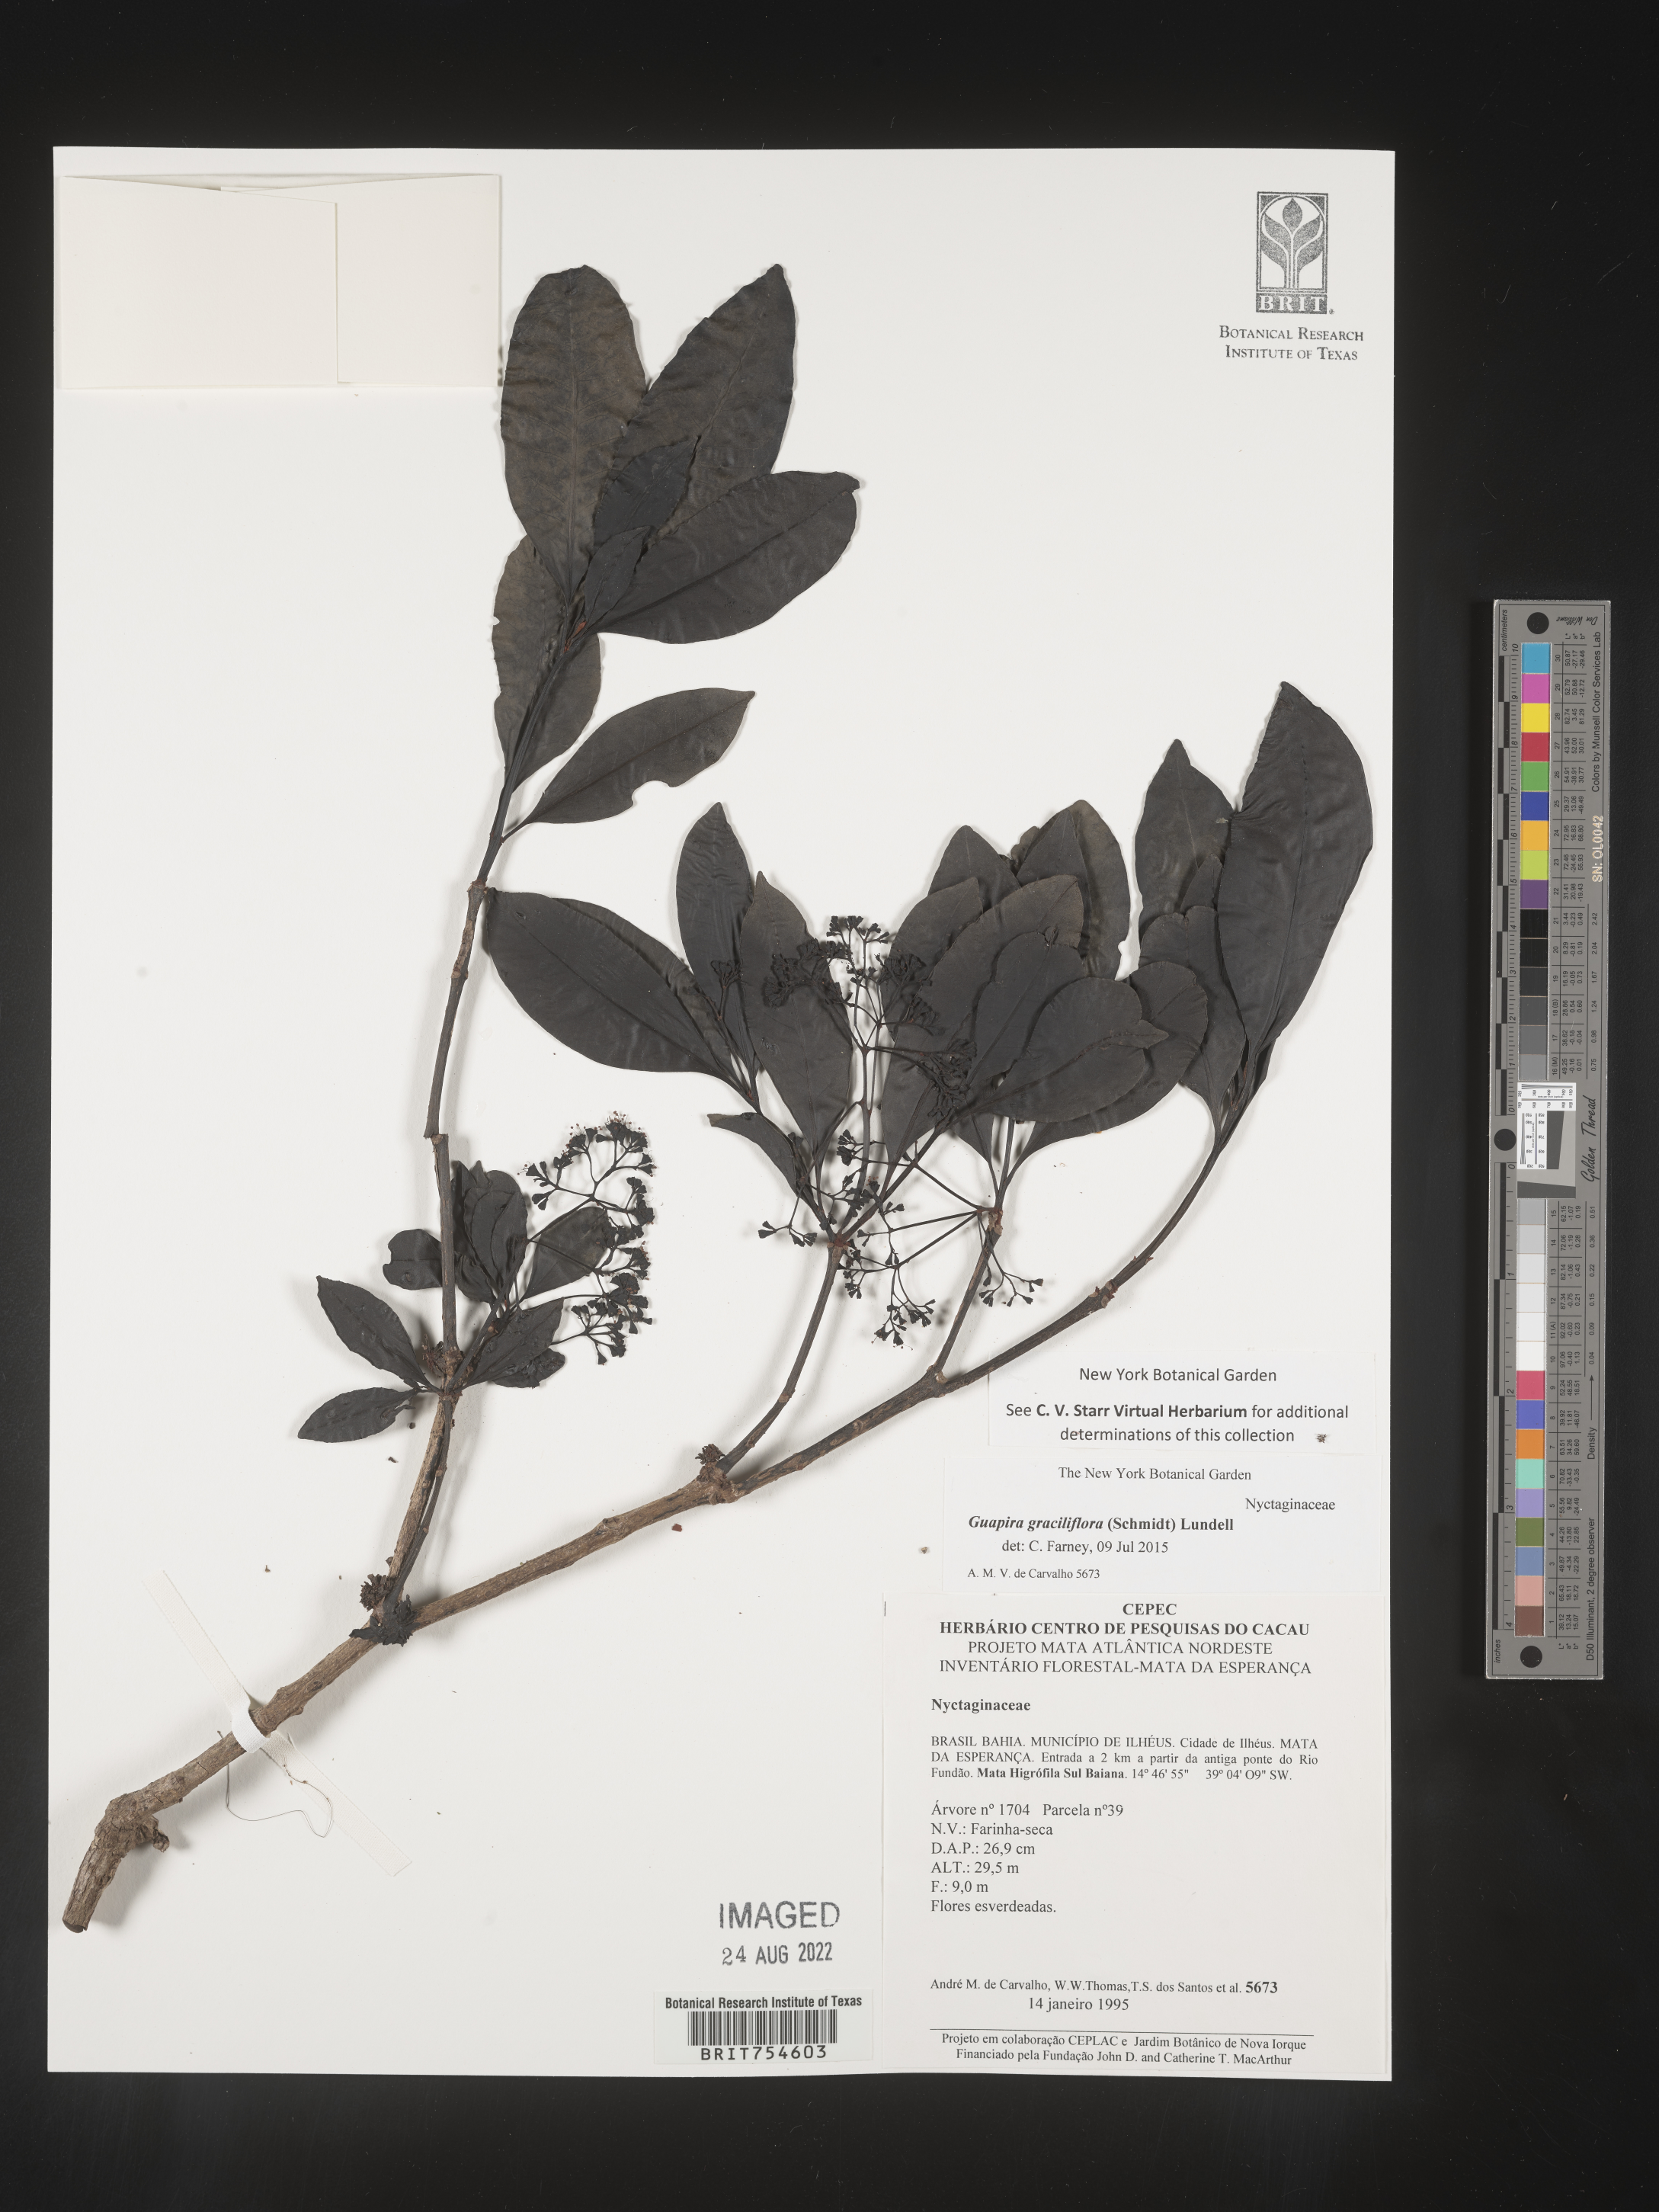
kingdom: Plantae
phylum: Tracheophyta
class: Magnoliopsida
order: Caryophyllales
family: Nyctaginaceae
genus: Guapira
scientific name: Guapira
